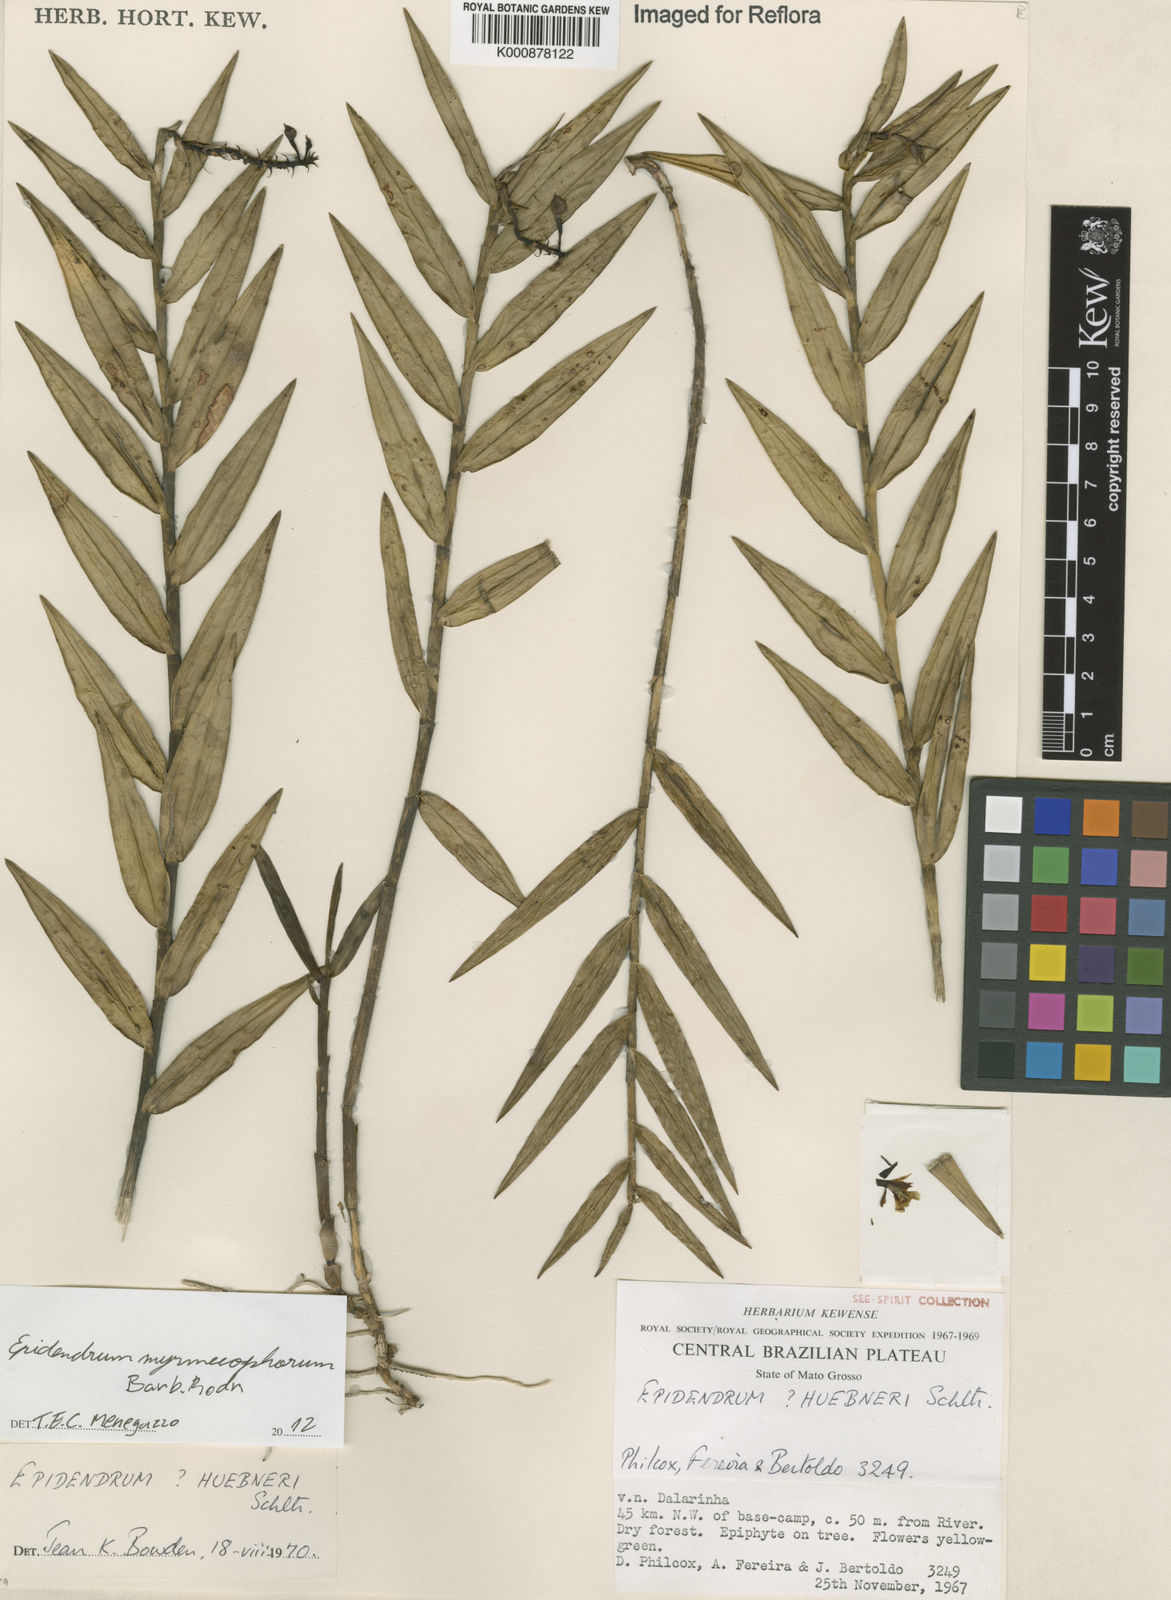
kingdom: Plantae
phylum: Tracheophyta
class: Liliopsida
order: Asparagales
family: Orchidaceae
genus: Epidendrum
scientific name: Epidendrum myrmecophorum
